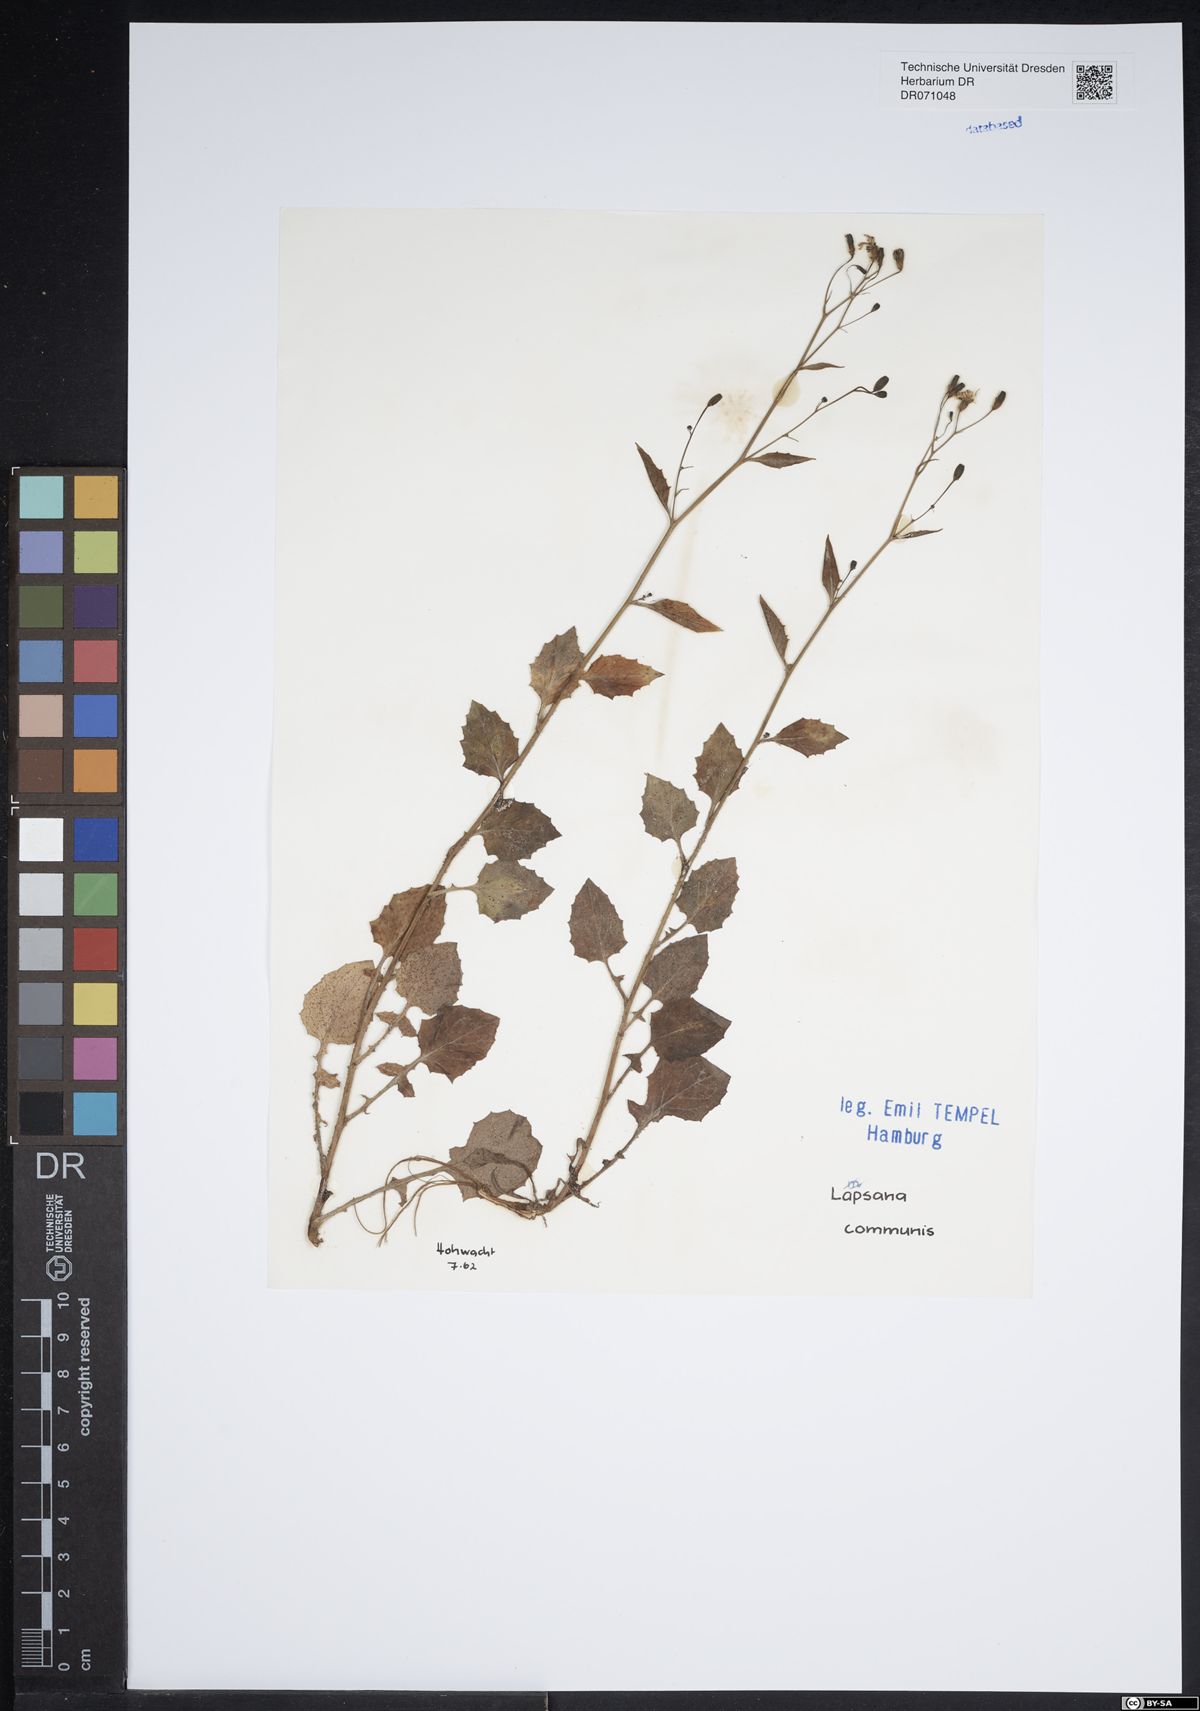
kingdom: Plantae
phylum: Tracheophyta
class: Magnoliopsida
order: Asterales
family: Asteraceae
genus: Lapsana
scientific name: Lapsana communis
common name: Nipplewort
